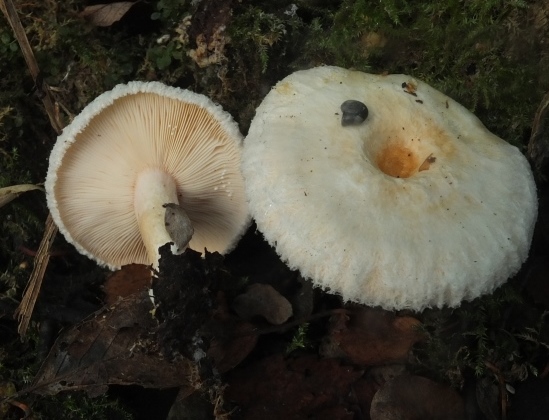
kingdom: Fungi
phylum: Basidiomycota
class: Agaricomycetes
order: Russulales
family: Russulaceae
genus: Lactarius
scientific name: Lactarius scoticus
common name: tørve-mælkehat
